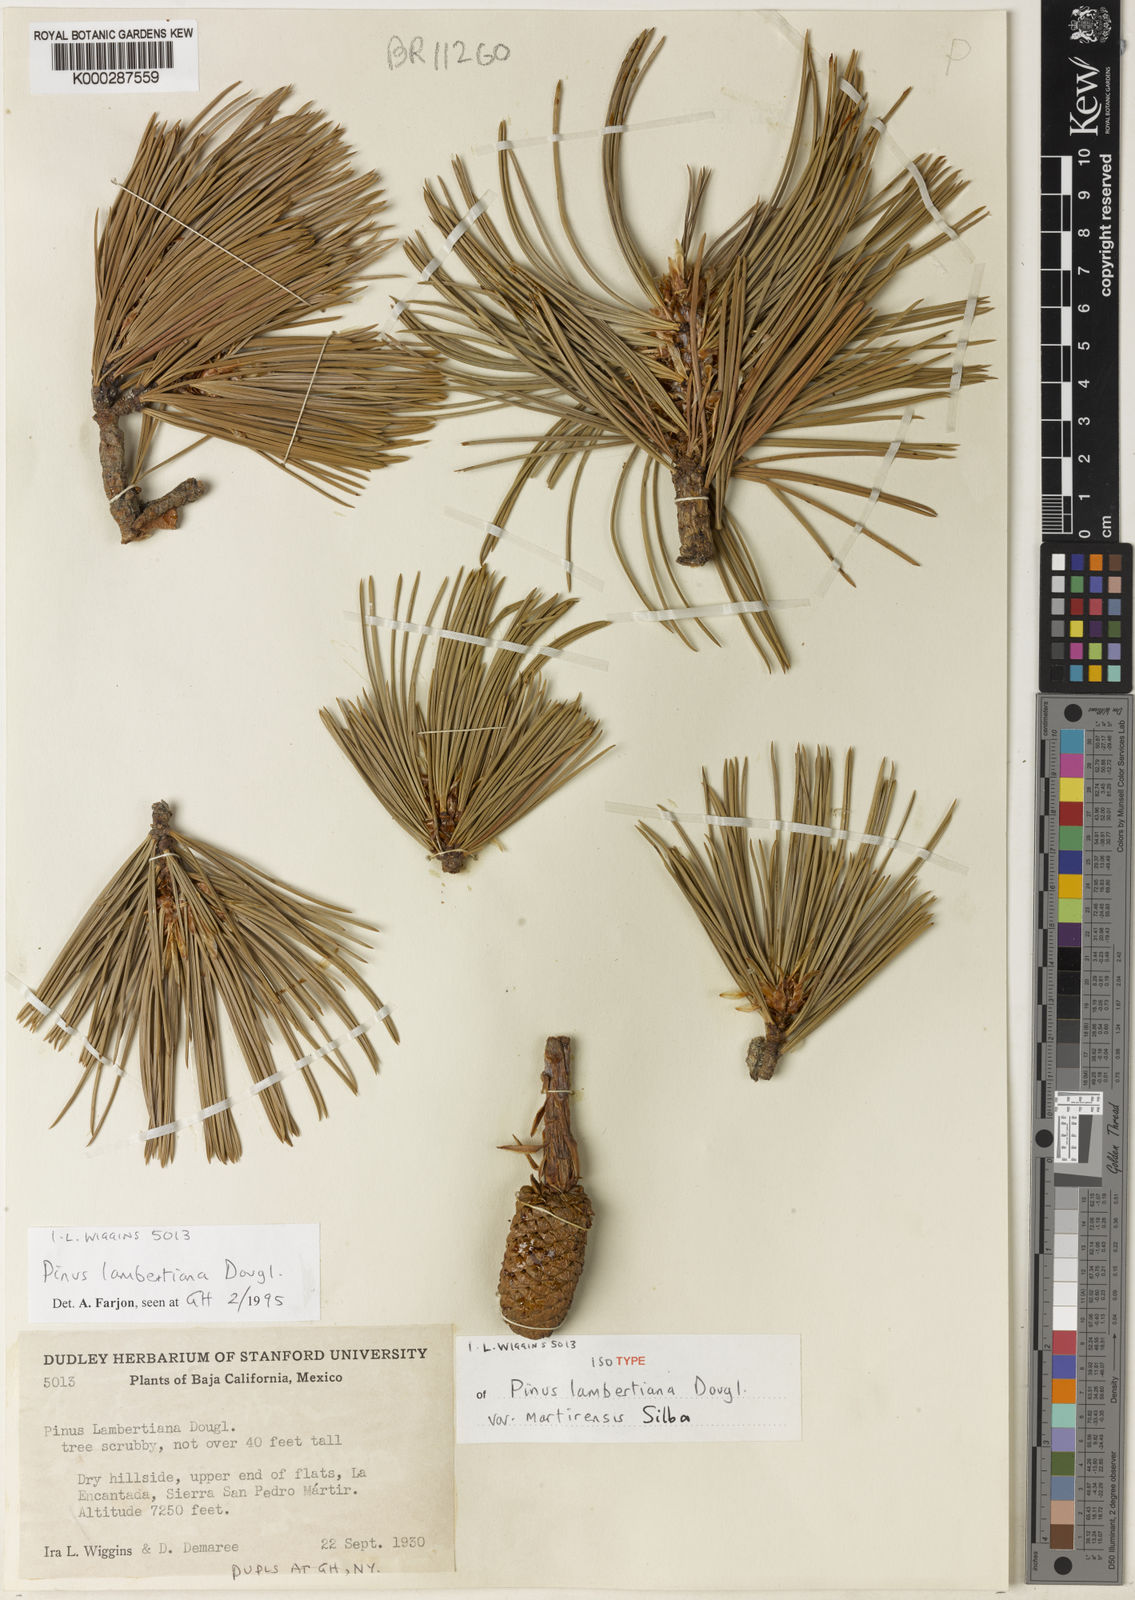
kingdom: Plantae
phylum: Tracheophyta
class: Pinopsida
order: Pinales
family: Pinaceae
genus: Pinus
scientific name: Pinus lambertiana
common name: Sugar pine
